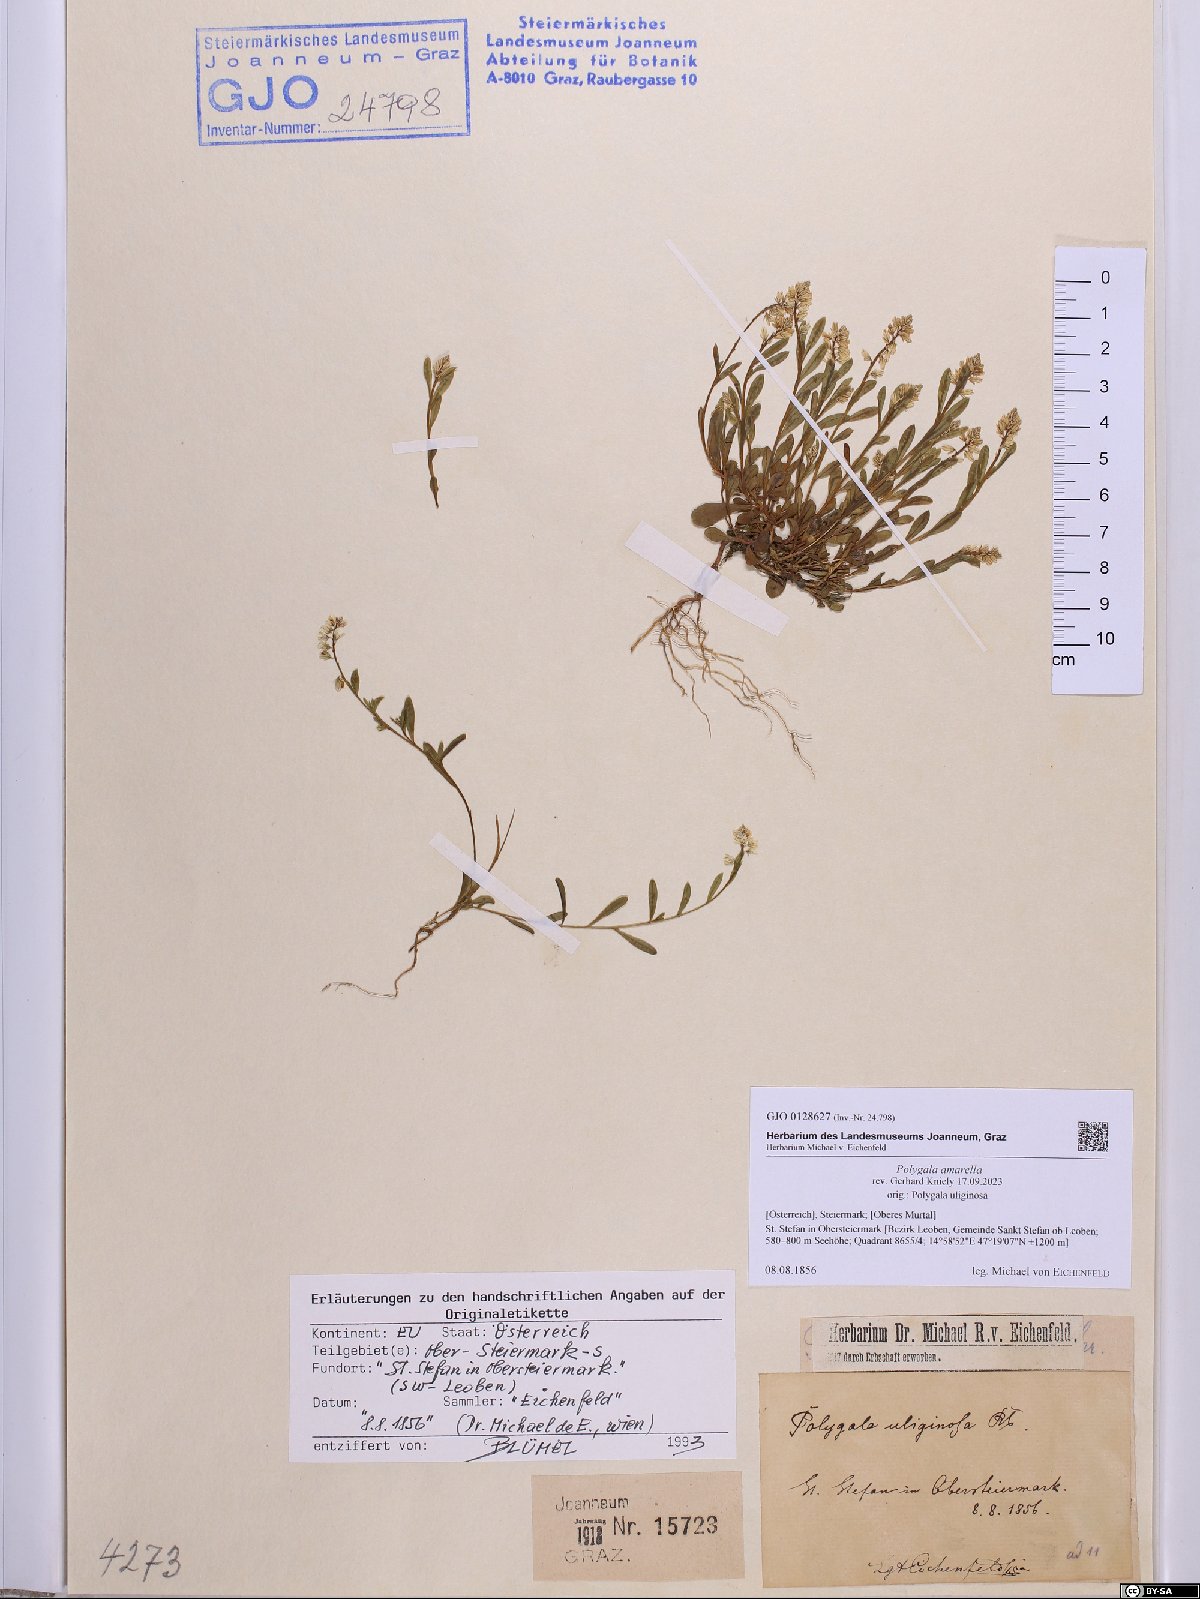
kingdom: Plantae
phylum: Tracheophyta
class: Magnoliopsida
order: Fabales
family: Polygalaceae
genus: Polygala
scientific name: Polygala amarella
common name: Dwarf milkwort
